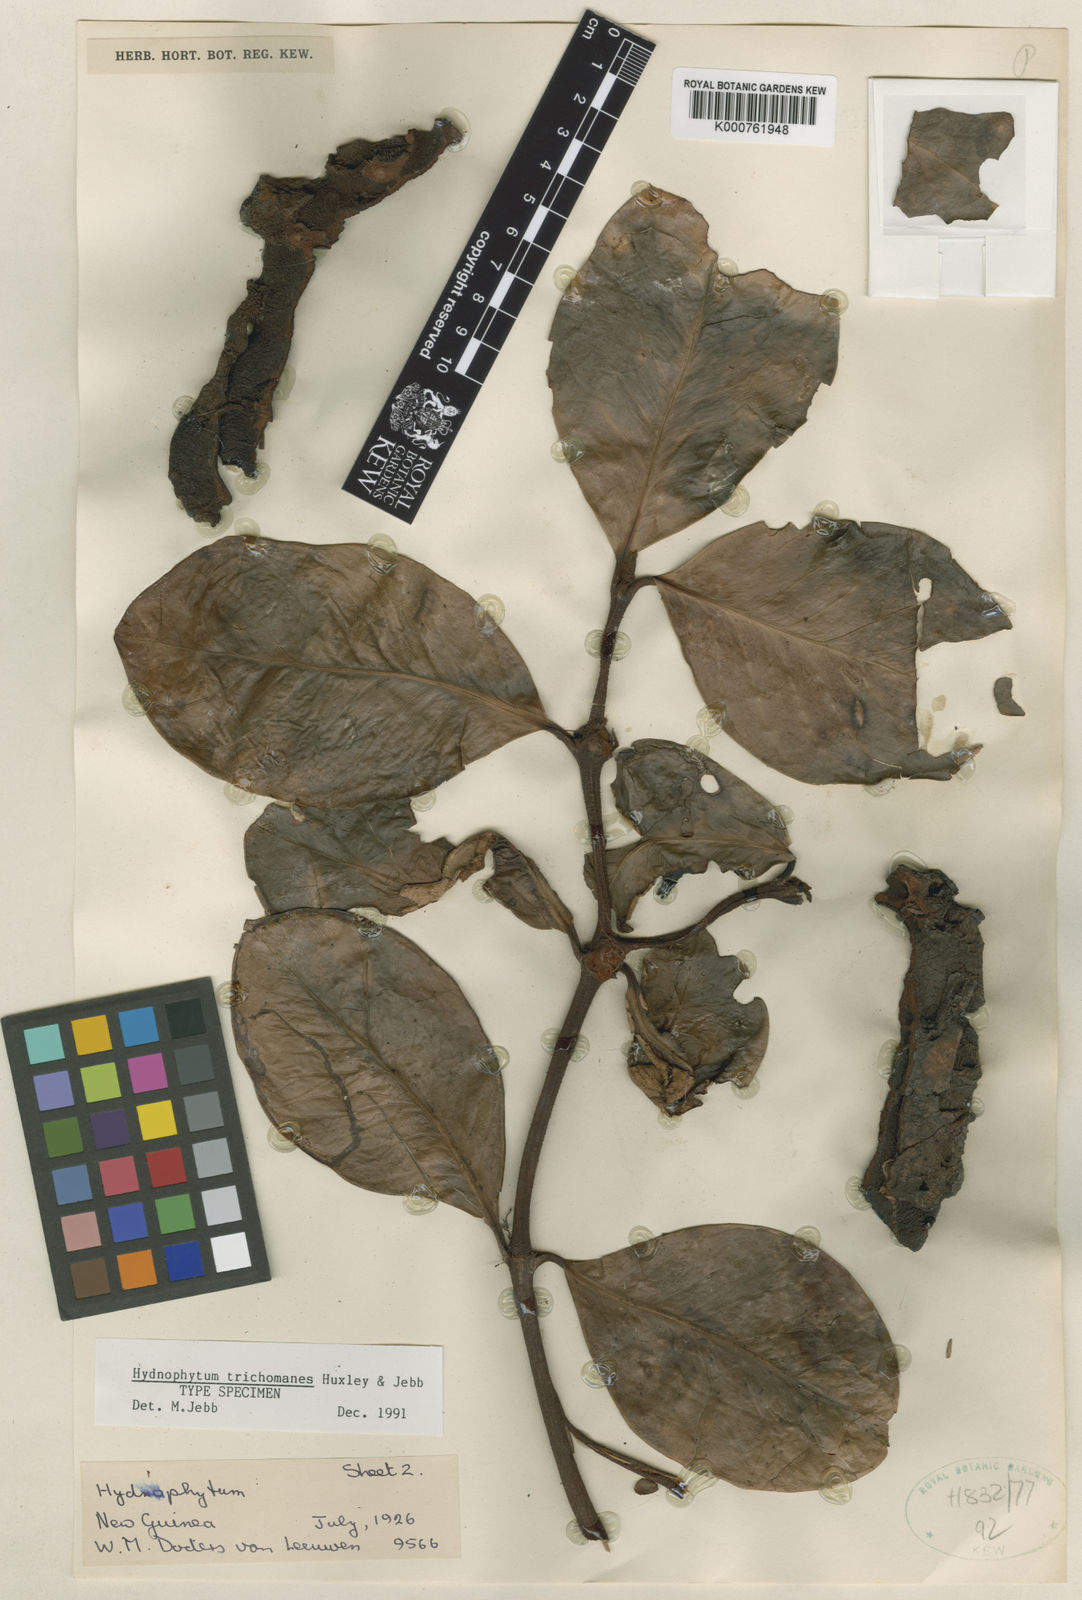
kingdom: Plantae
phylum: Tracheophyta
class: Magnoliopsida
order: Gentianales
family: Rubiaceae
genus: Hydnophytum
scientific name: Hydnophytum
